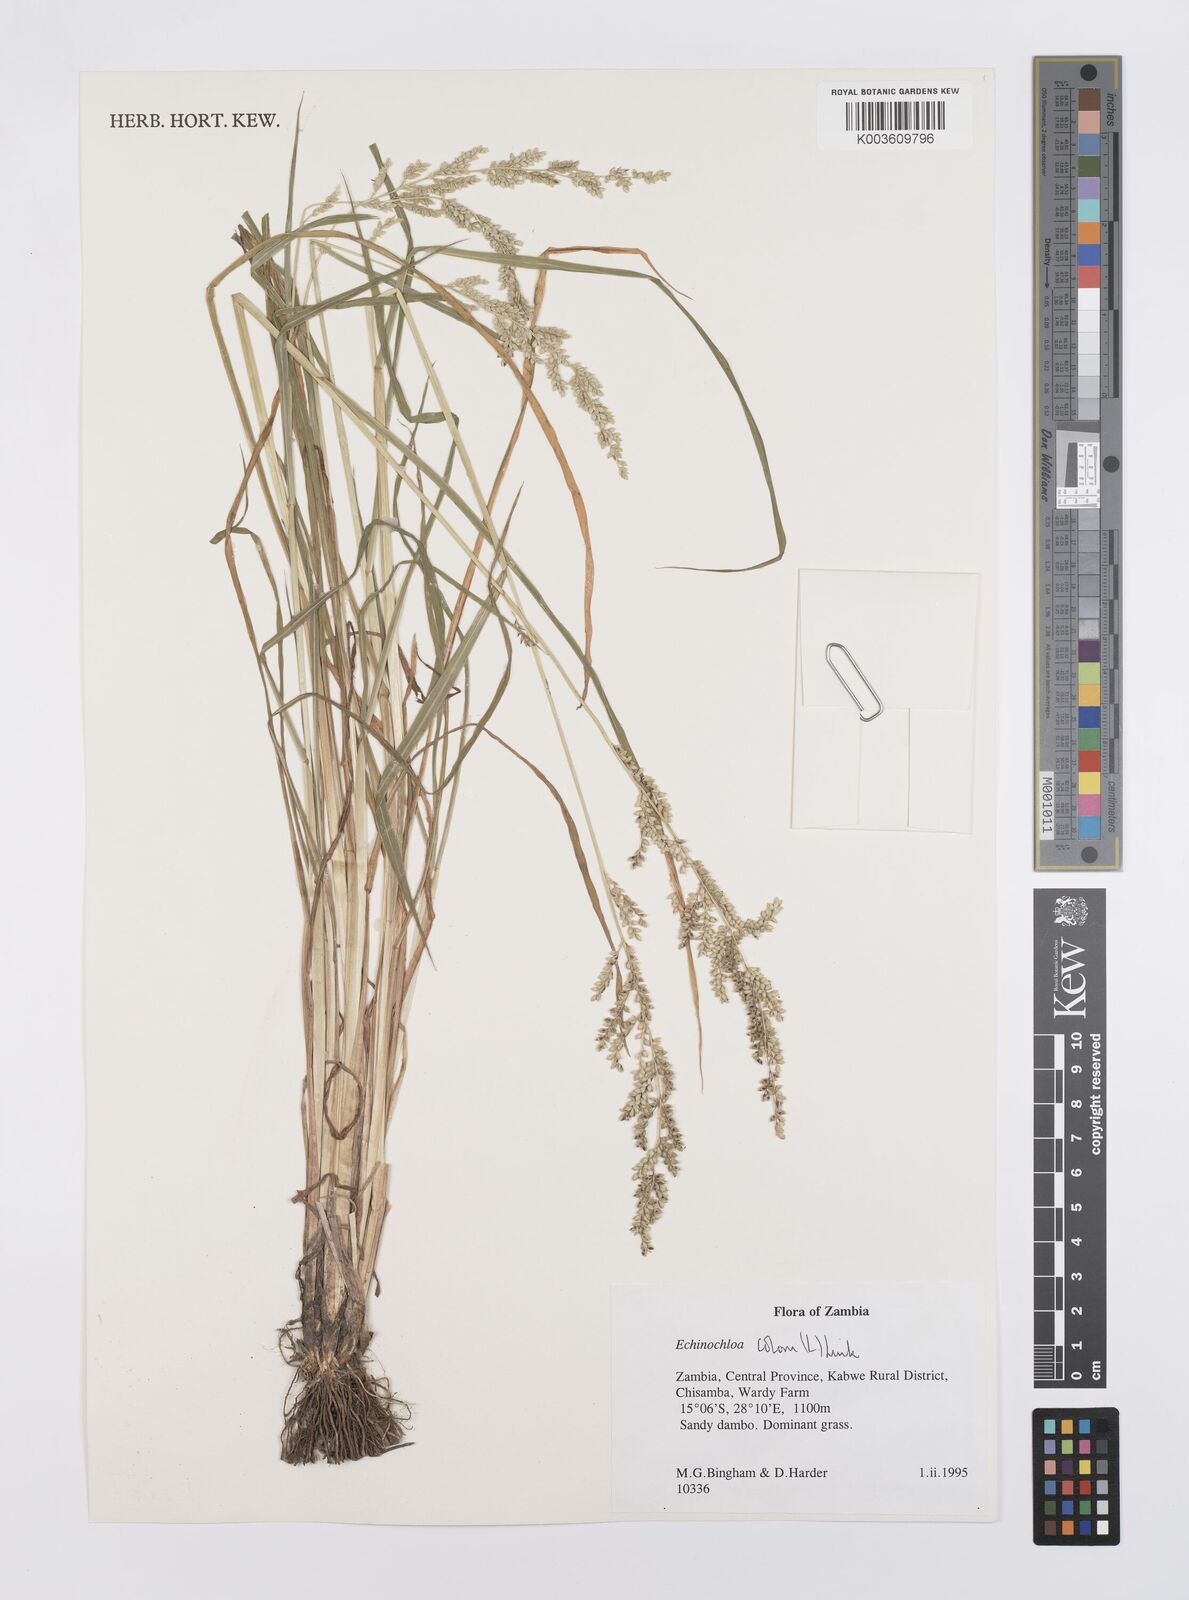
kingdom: Plantae
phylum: Tracheophyta
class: Liliopsida
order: Poales
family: Poaceae
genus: Echinochloa
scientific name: Echinochloa colonum
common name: Jungle rice
